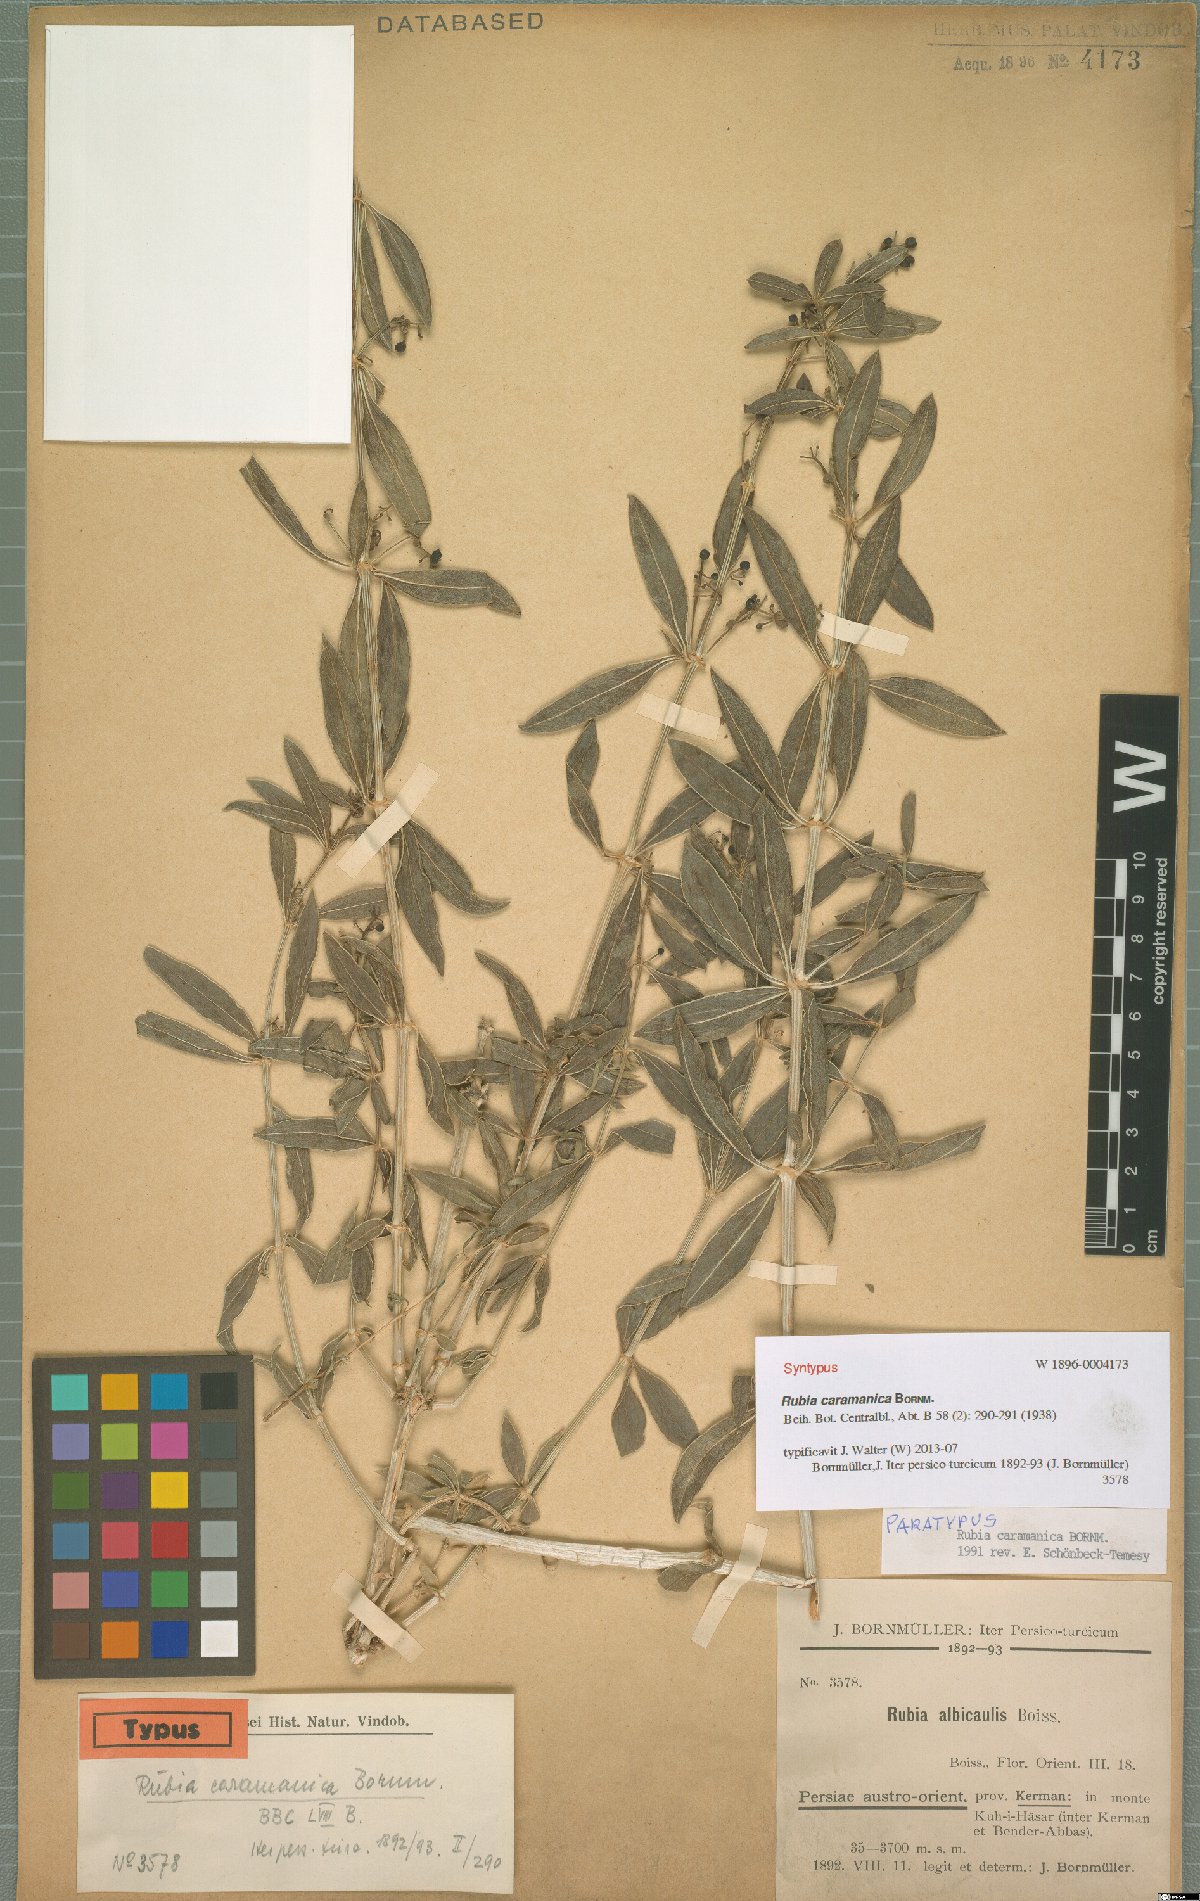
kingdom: Plantae
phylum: Tracheophyta
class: Magnoliopsida
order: Gentianales
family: Rubiaceae
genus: Rubia
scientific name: Rubia caramanica
